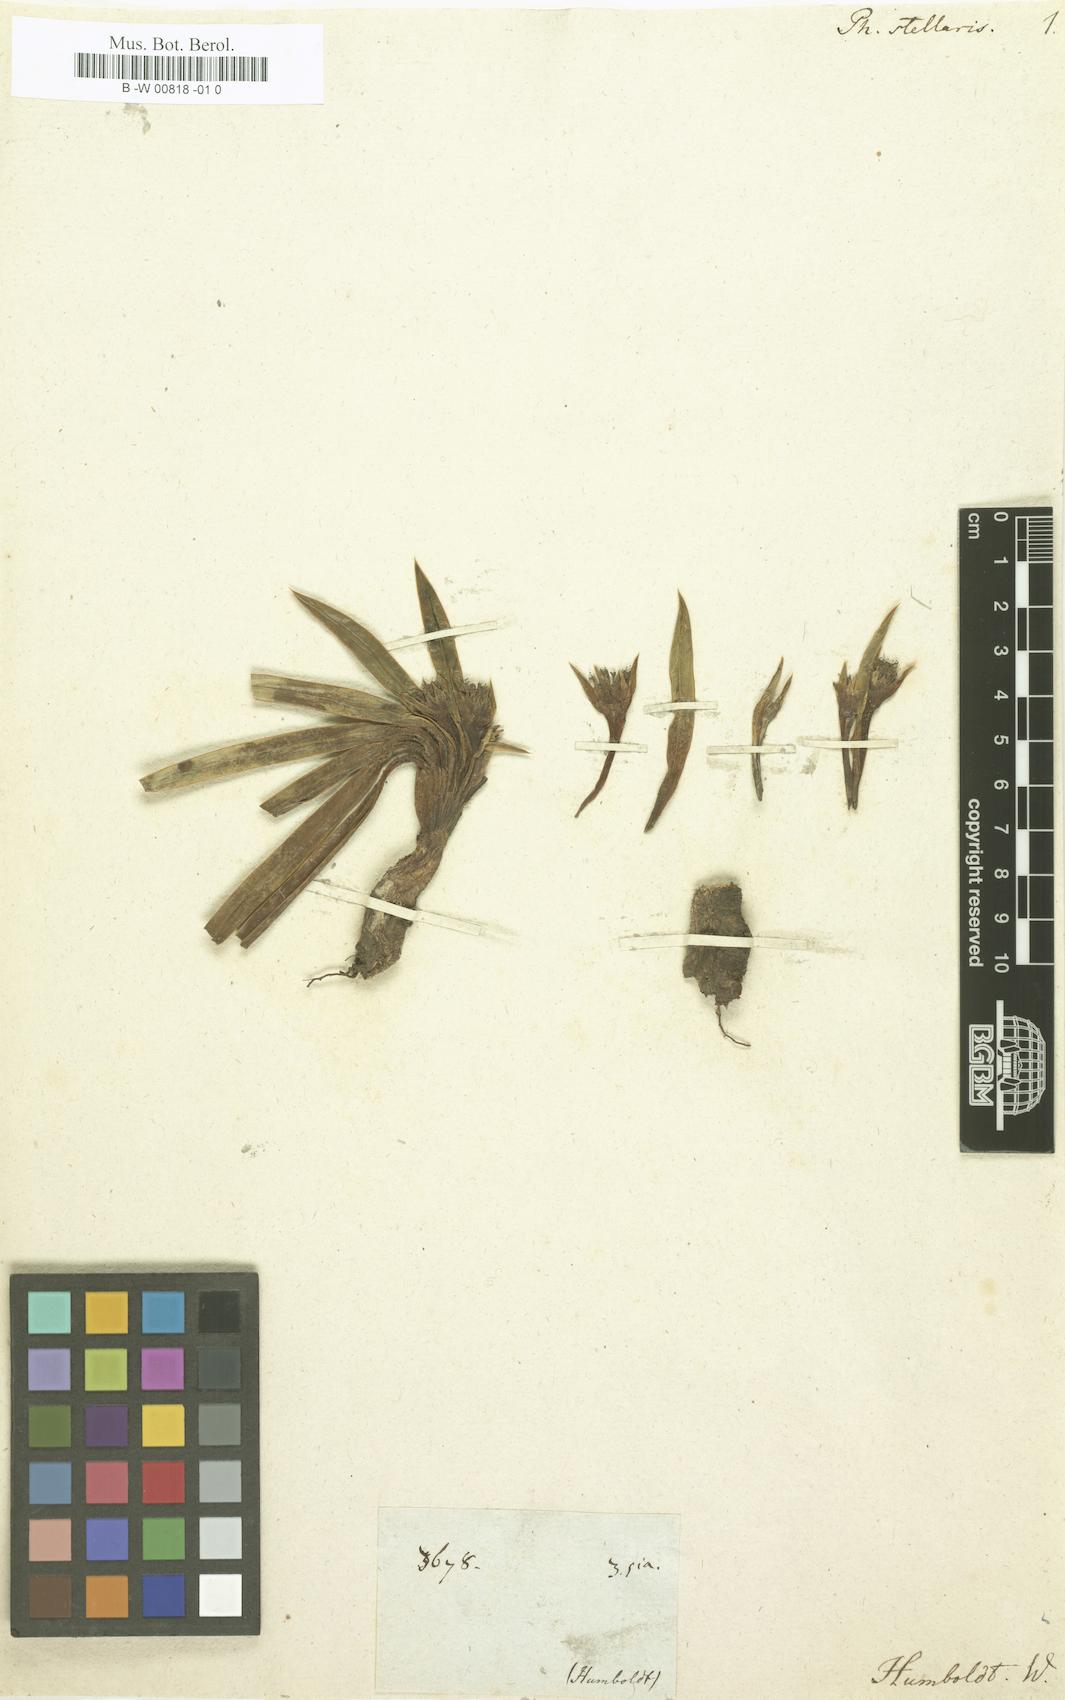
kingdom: Plantae
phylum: Tracheophyta
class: Magnoliopsida
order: Asterales
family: Asteraceae
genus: Phyllactis
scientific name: Phyllactis
